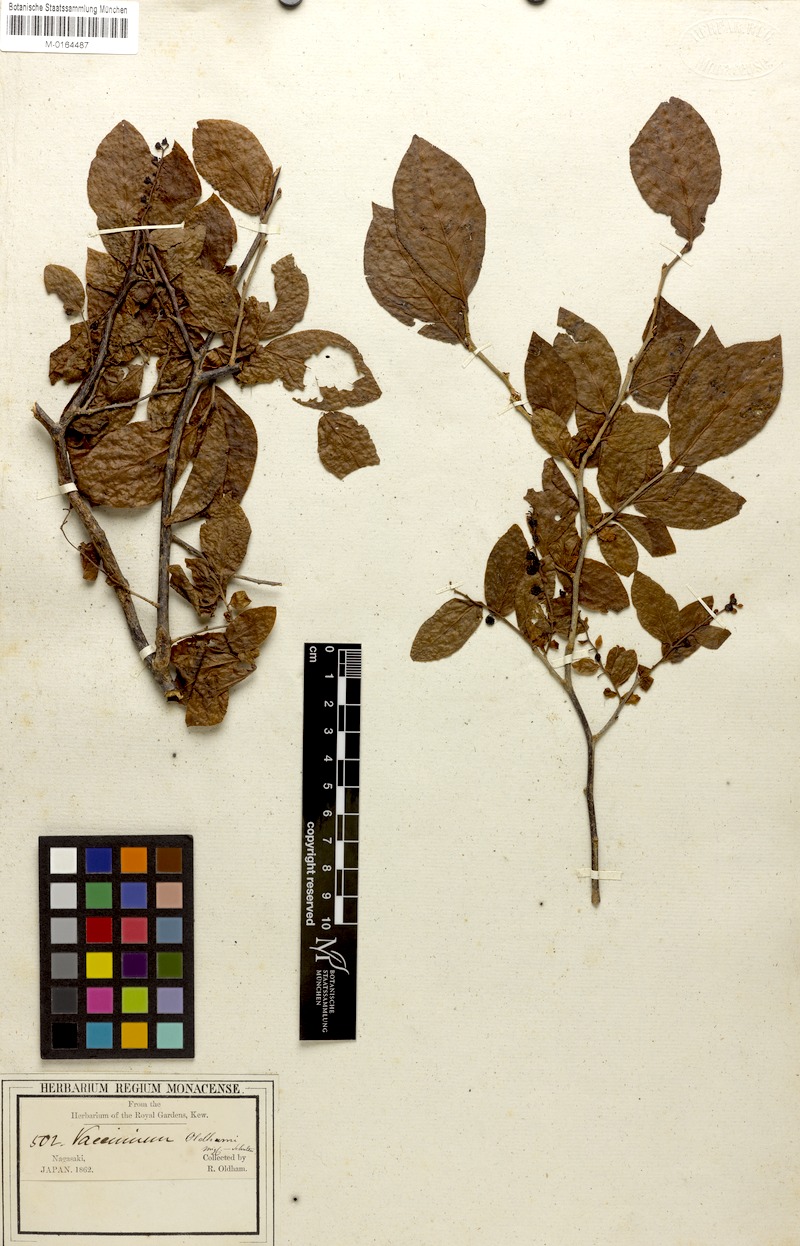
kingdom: Plantae
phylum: Tracheophyta
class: Magnoliopsida
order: Ericales
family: Ericaceae
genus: Vaccinium
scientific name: Vaccinium oldhamii
